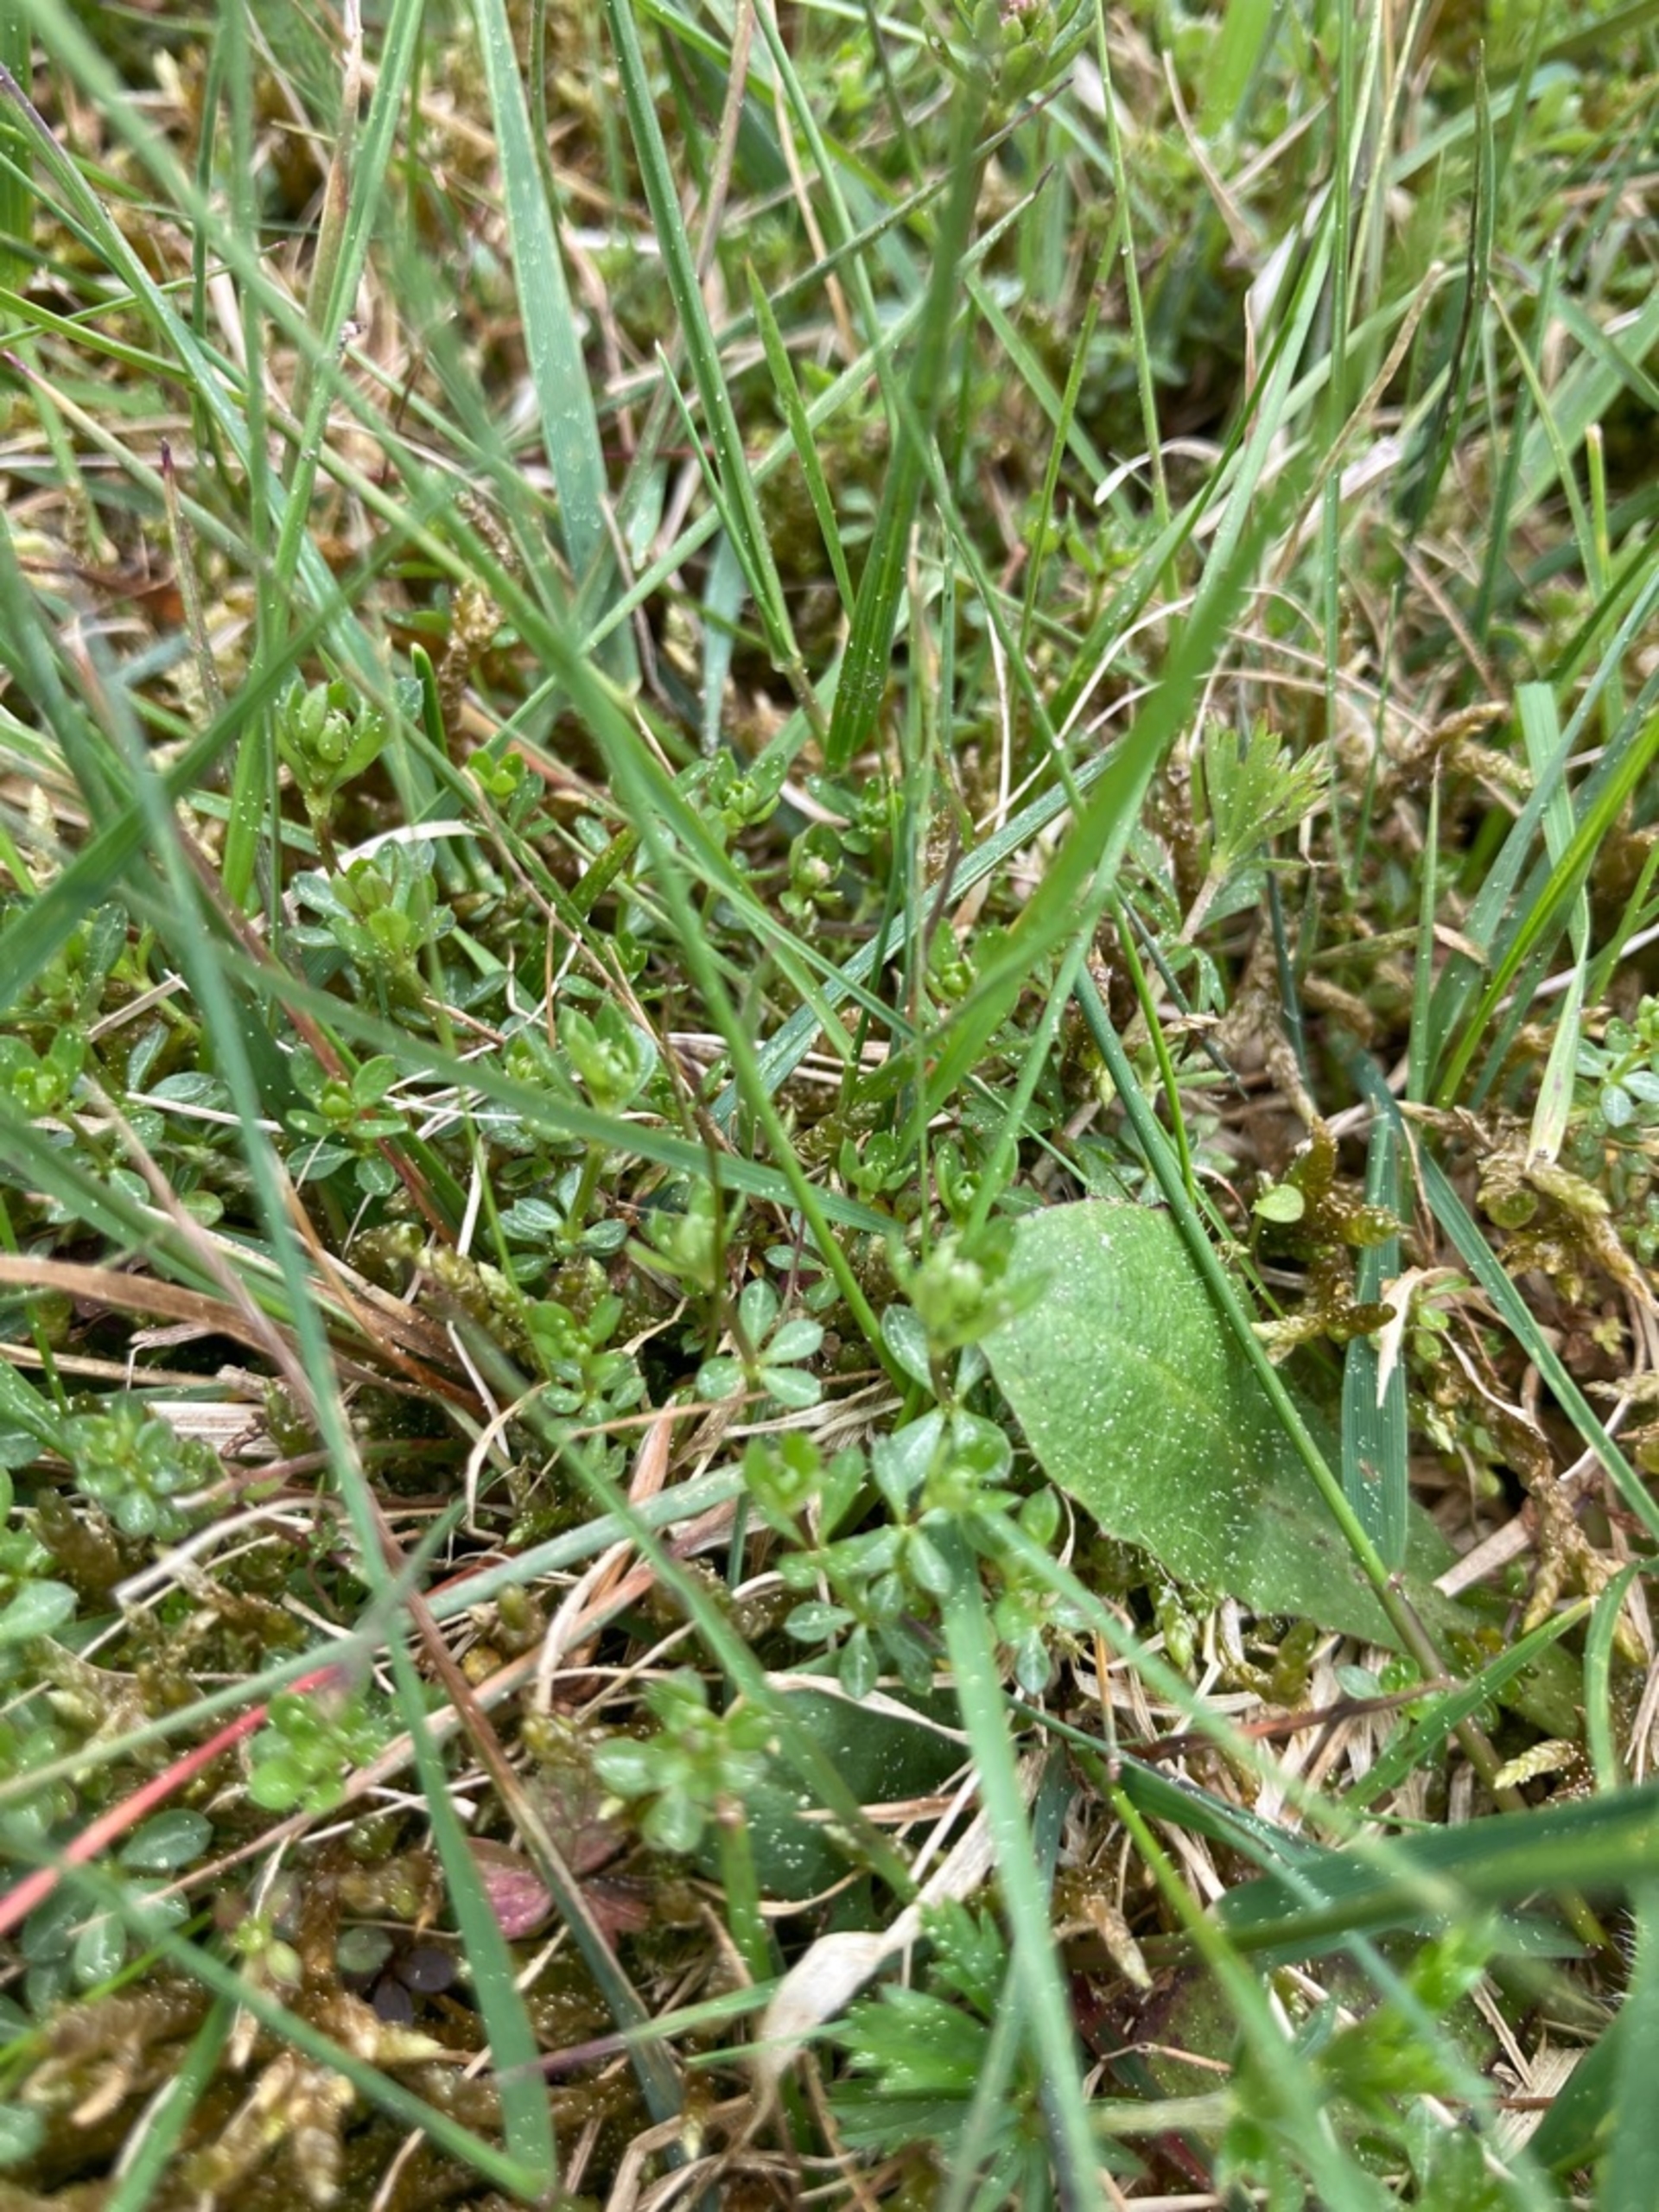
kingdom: Plantae
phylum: Tracheophyta
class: Magnoliopsida
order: Gentianales
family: Rubiaceae
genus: Galium
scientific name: Galium saxatile
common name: Lyng-snerre
